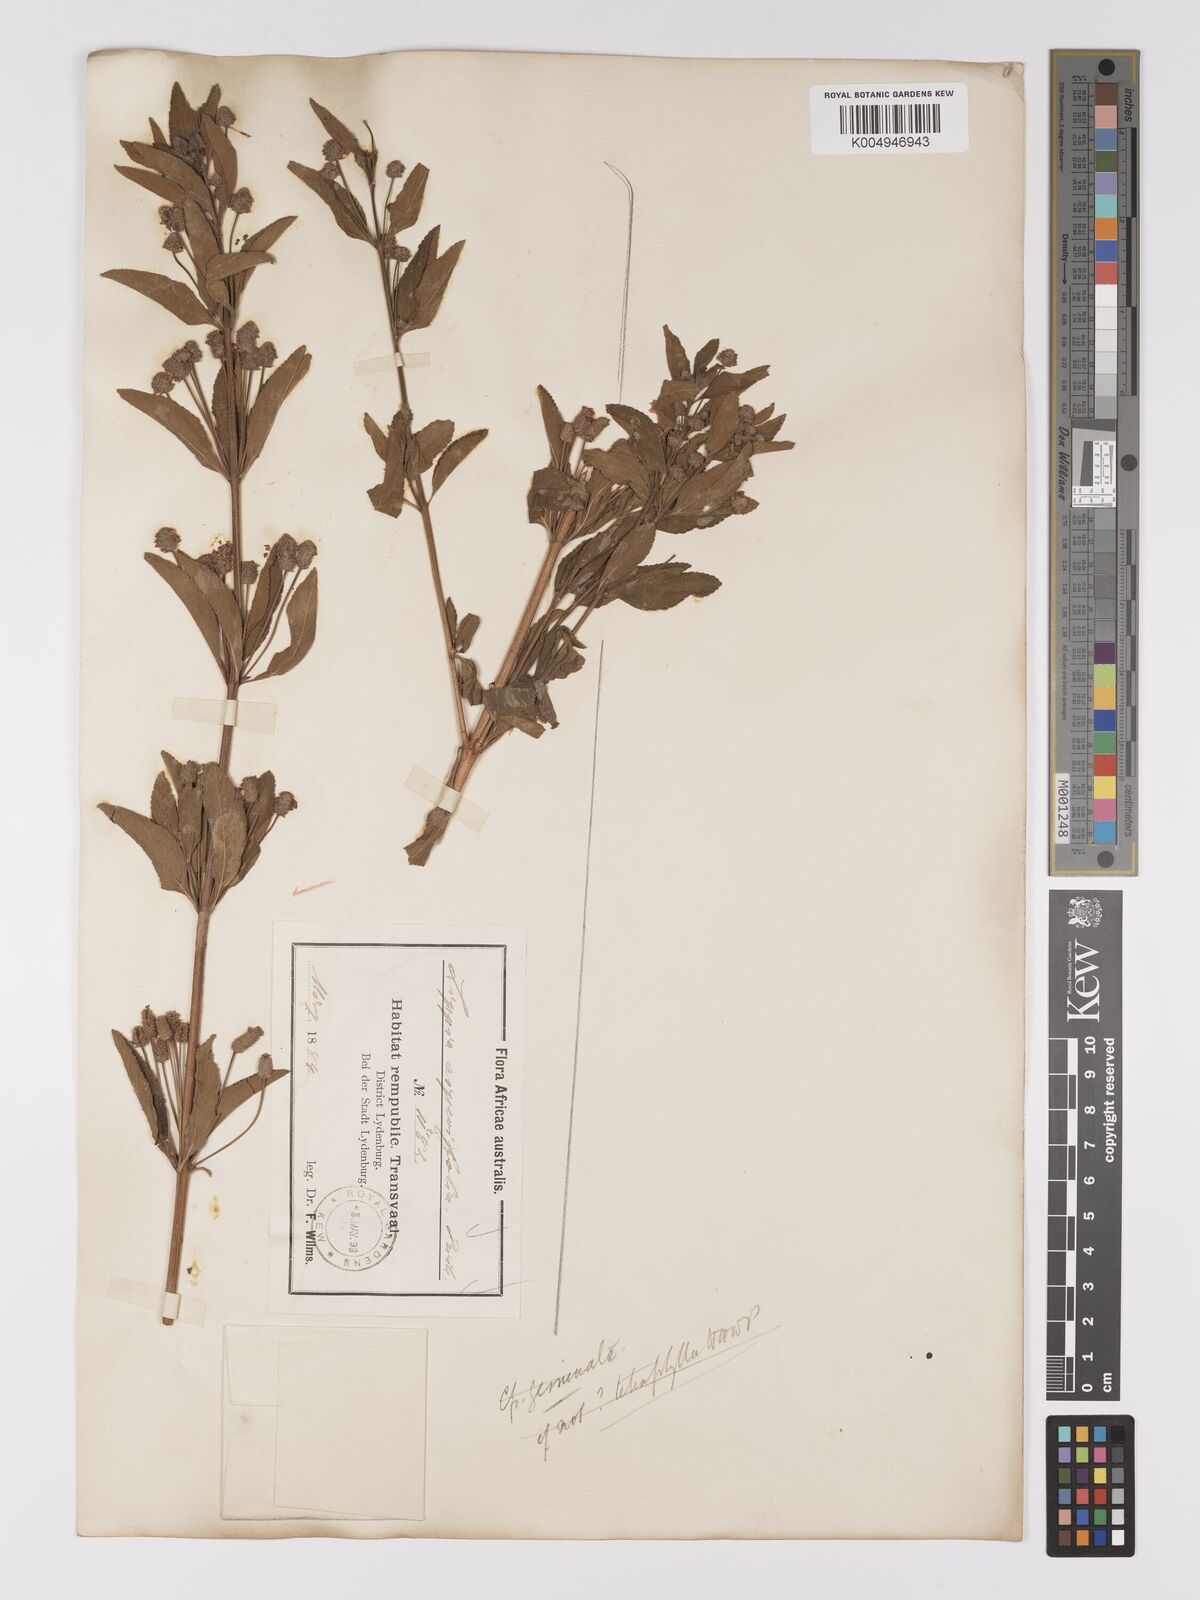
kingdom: Plantae
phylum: Tracheophyta
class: Magnoliopsida
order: Lamiales
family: Verbenaceae
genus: Lippia
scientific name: Lippia
